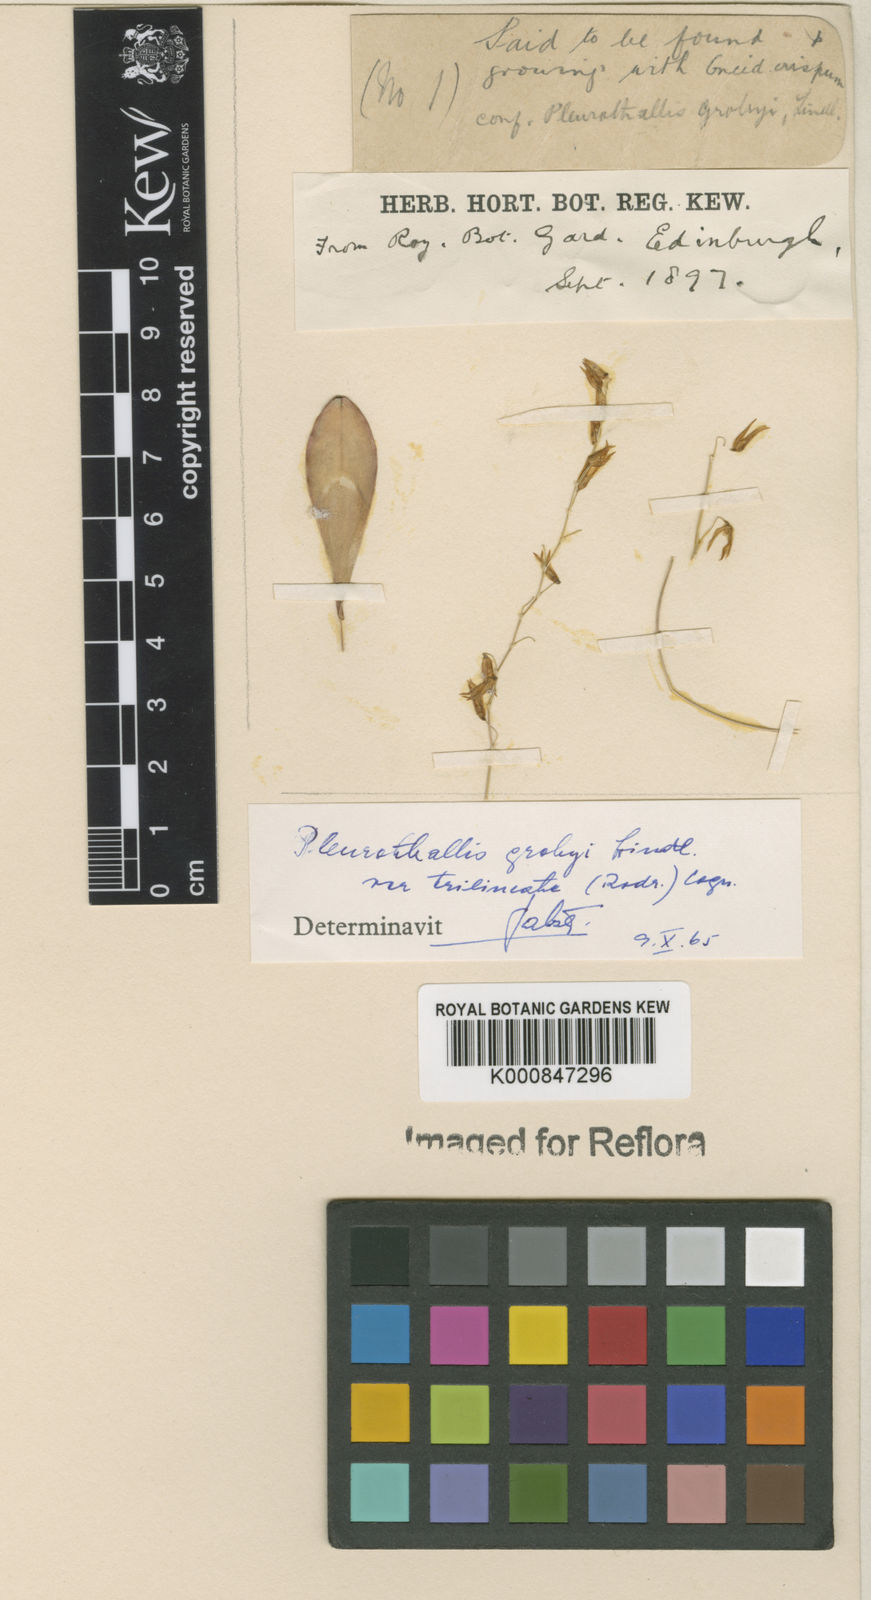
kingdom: Plantae
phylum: Tracheophyta
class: Liliopsida
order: Asparagales
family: Orchidaceae
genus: Specklinia
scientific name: Specklinia grobyi
